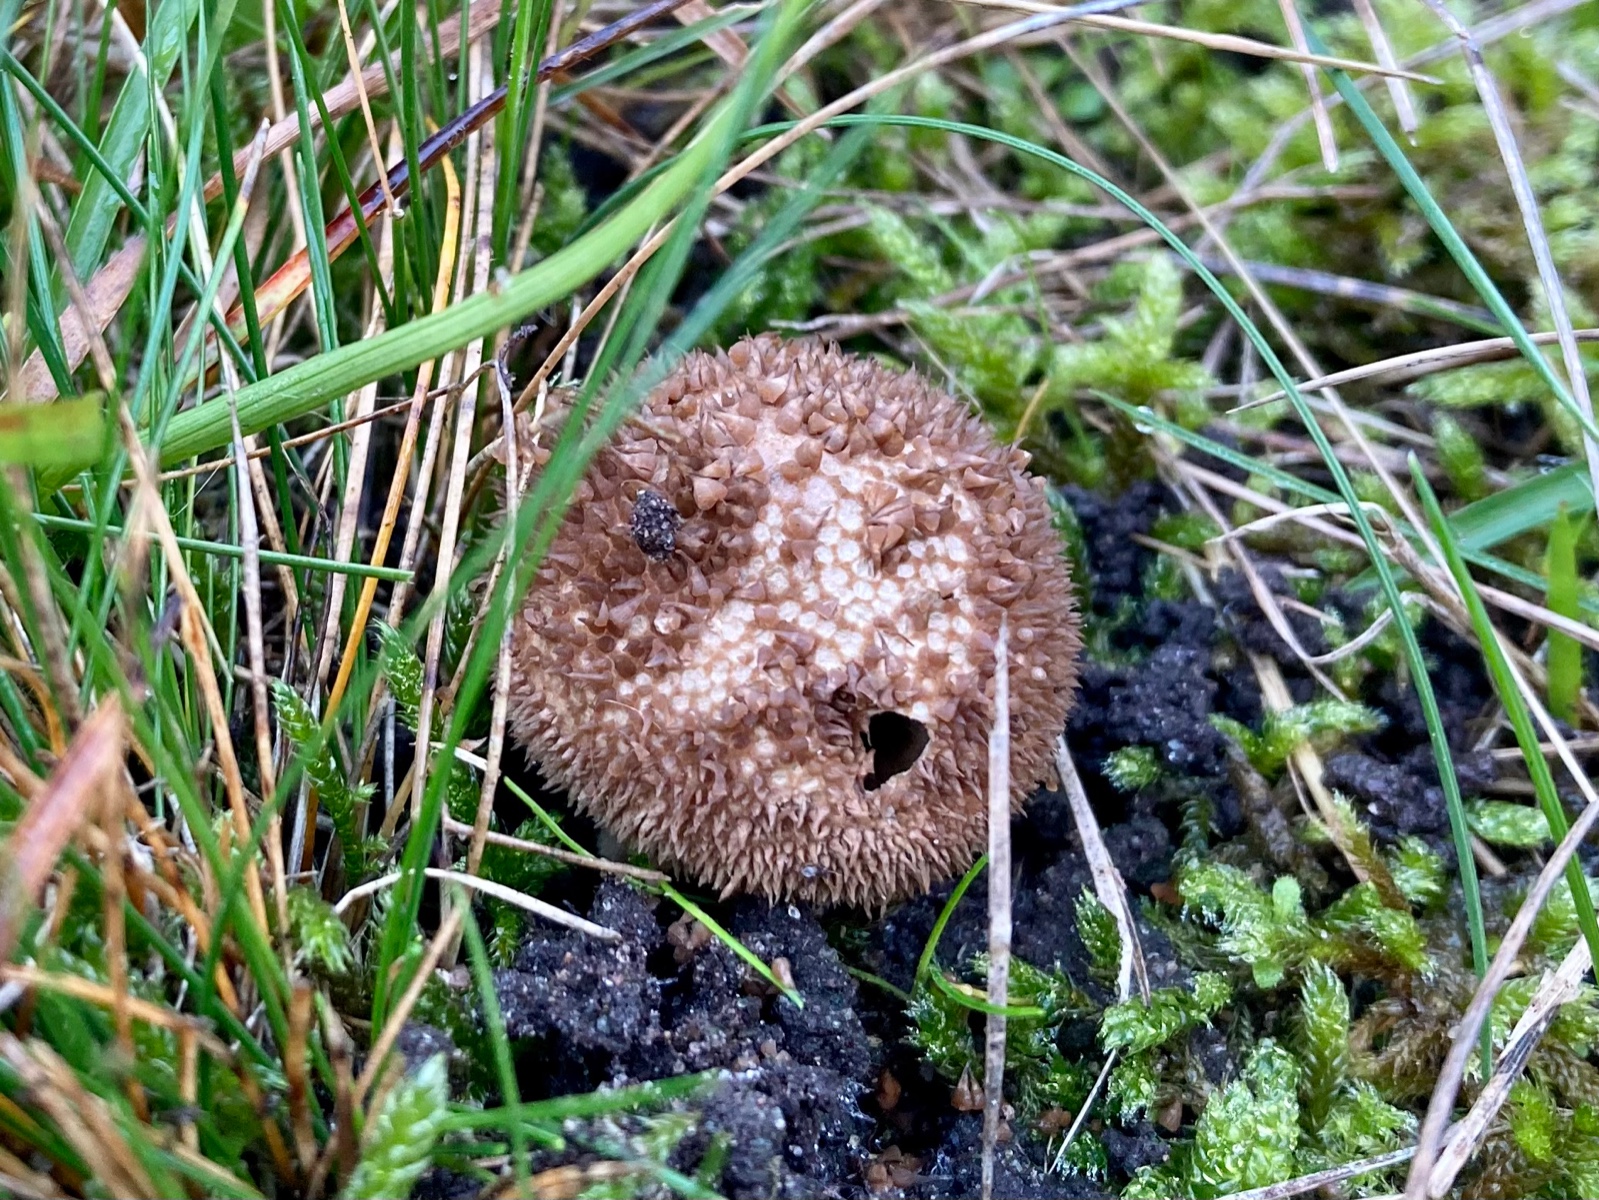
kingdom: Fungi
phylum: Basidiomycota
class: Agaricomycetes
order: Agaricales
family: Lycoperdaceae
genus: Lycoperdon
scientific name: Lycoperdon nigrescens
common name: sortagtig støvbold
